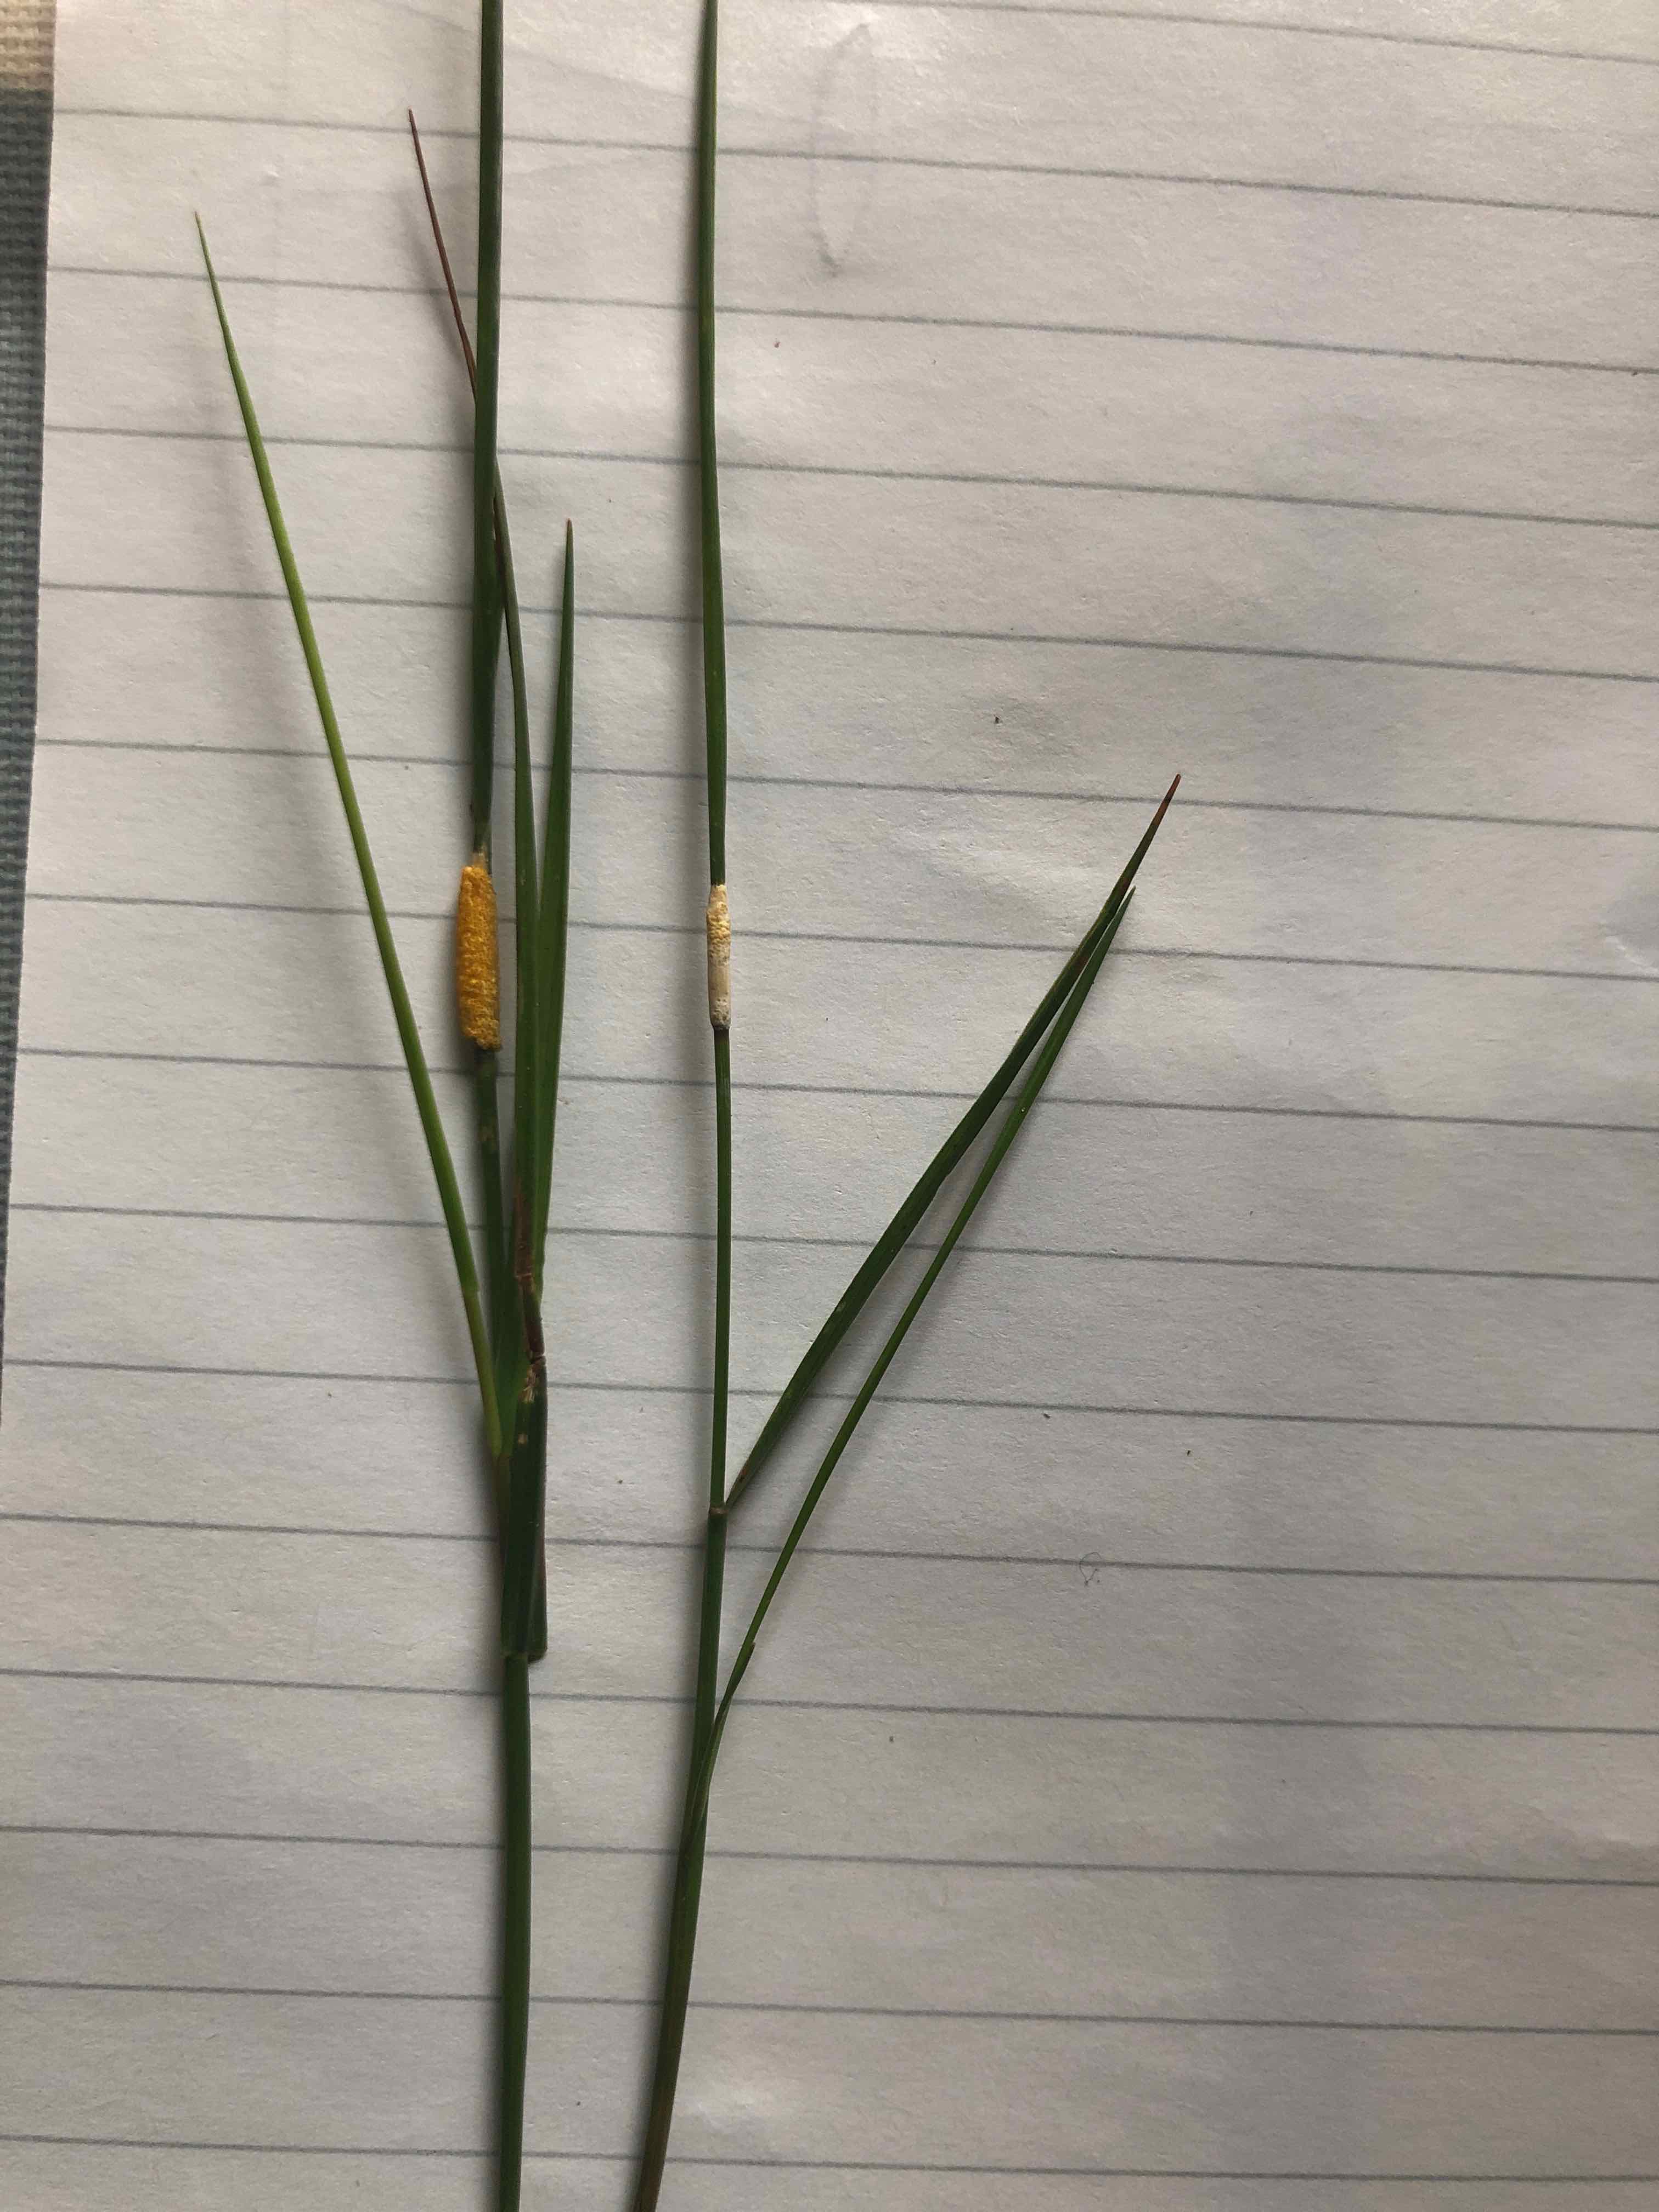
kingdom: Fungi
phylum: Ascomycota
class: Sordariomycetes
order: Hypocreales
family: Clavicipitaceae
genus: Epichloe
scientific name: Epichloe baconii
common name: hvene-kernerør
